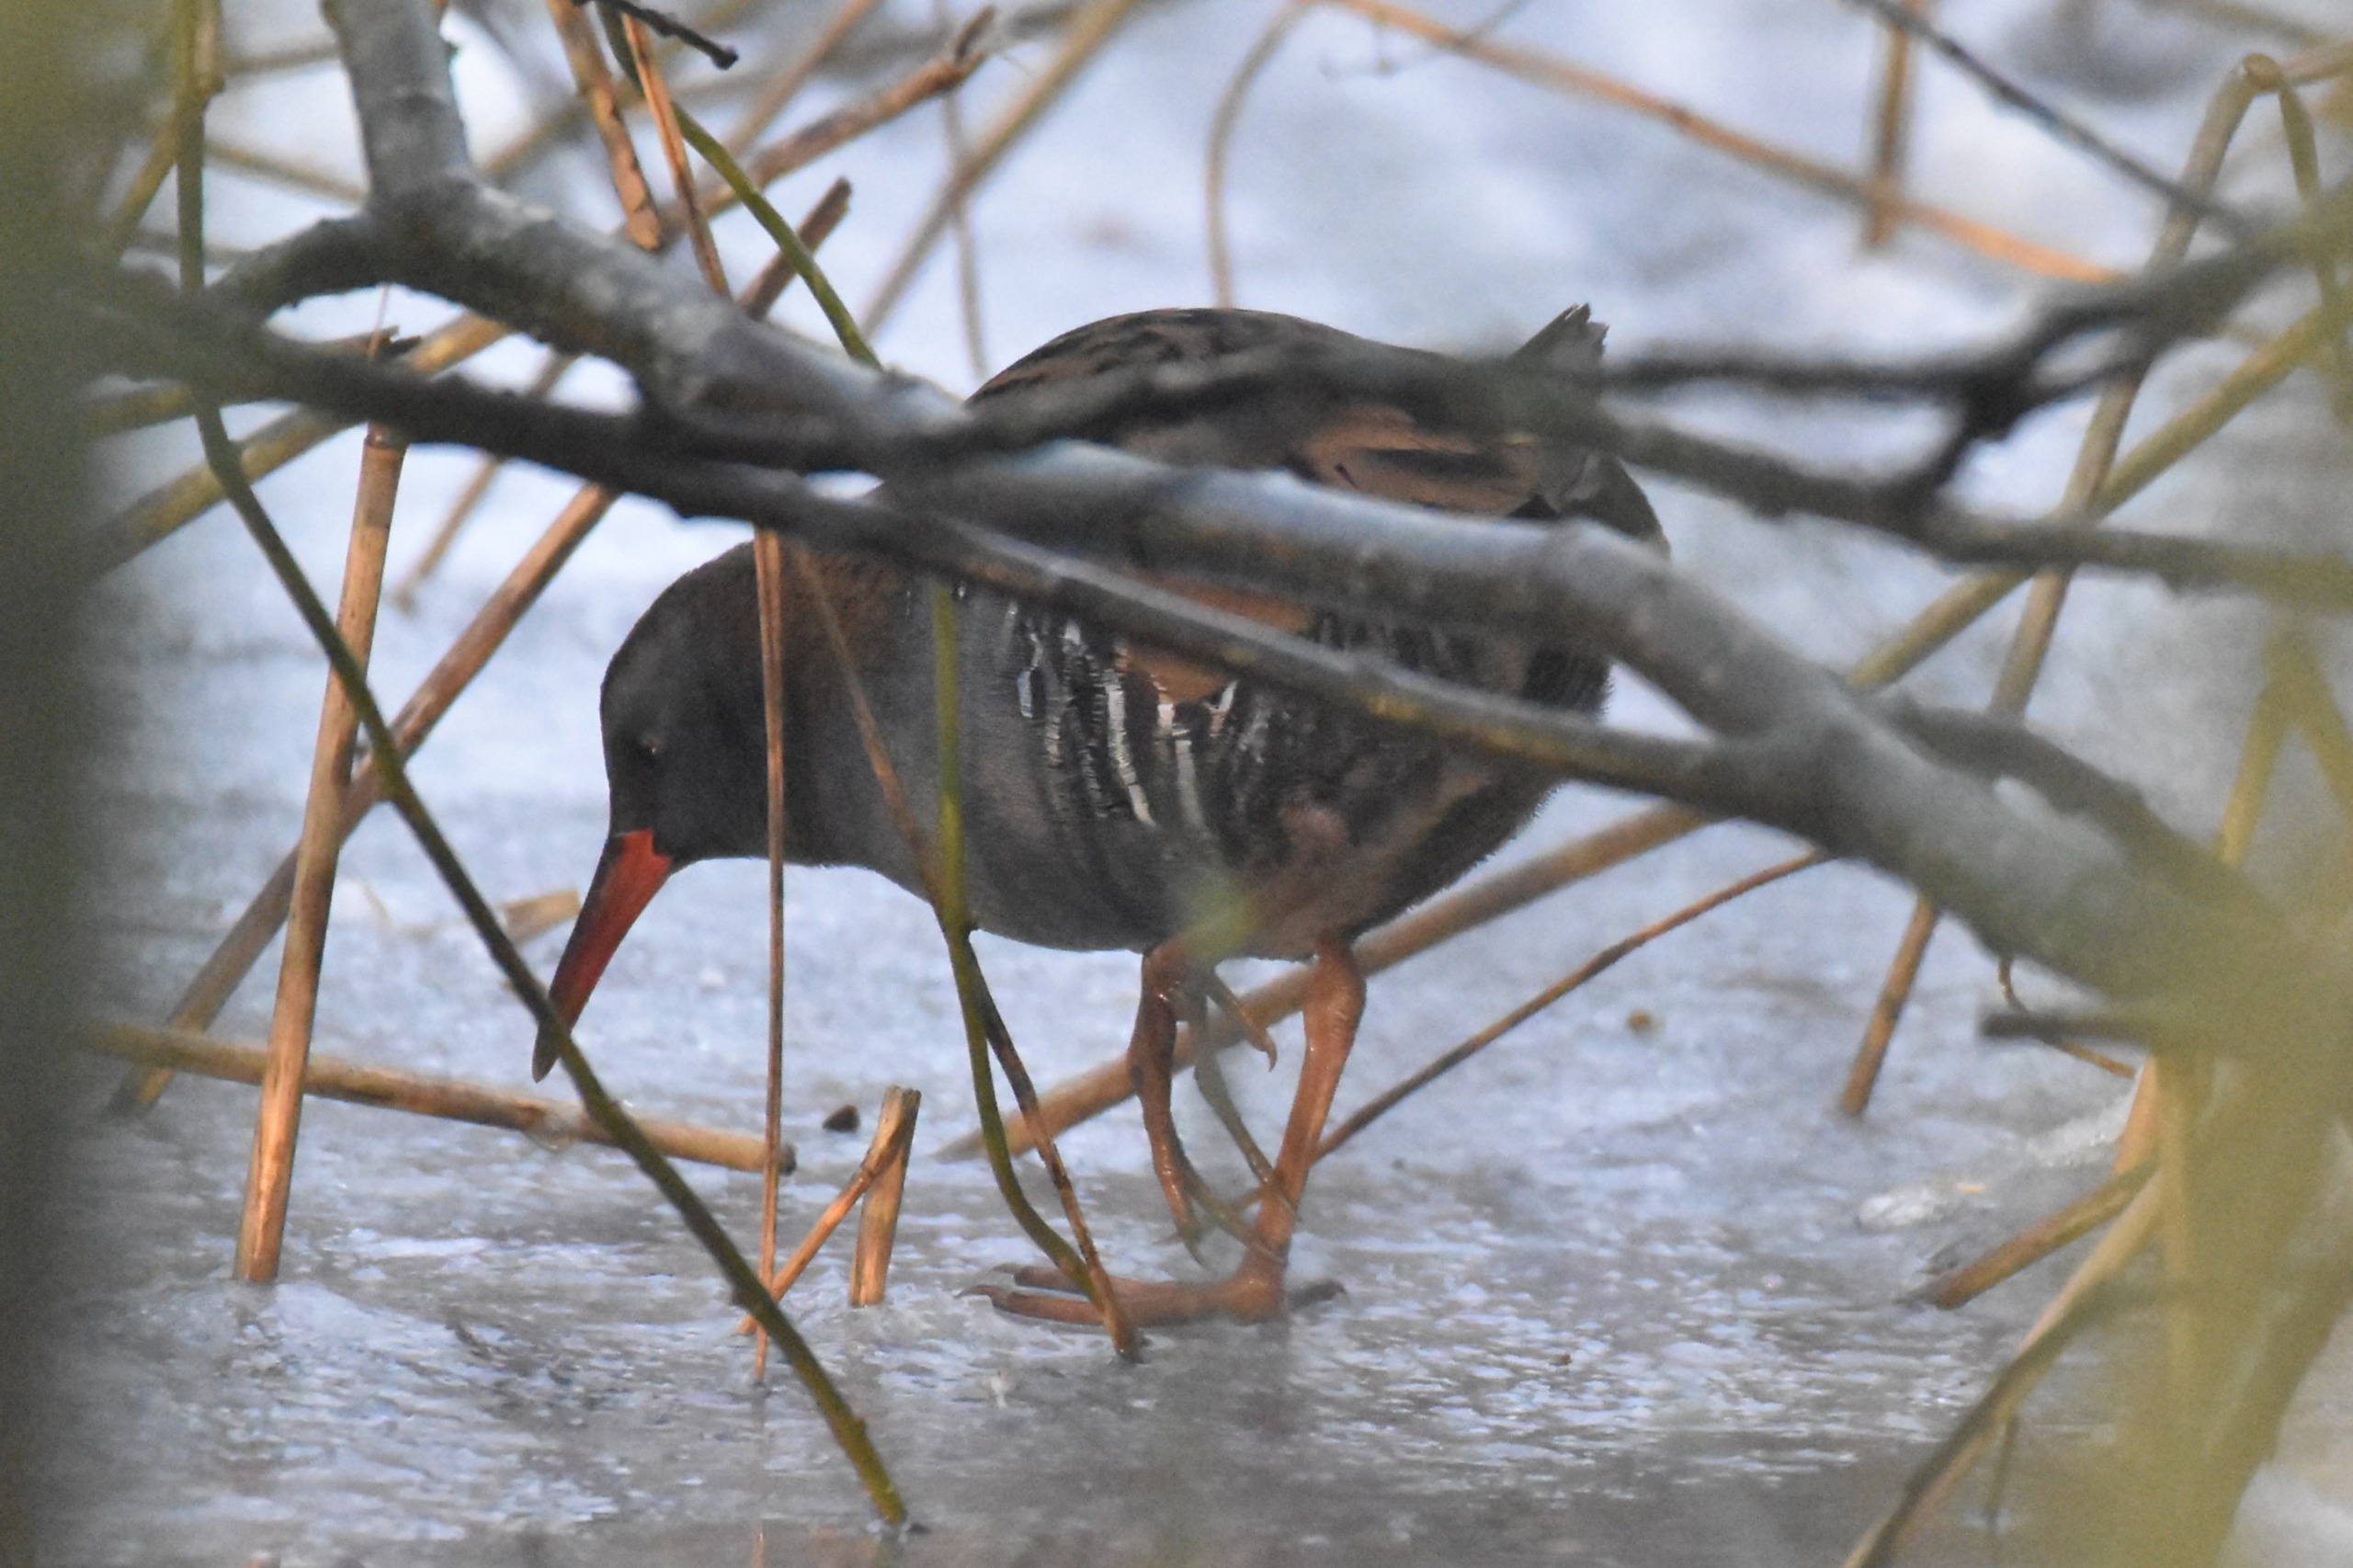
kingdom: Animalia
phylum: Chordata
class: Aves
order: Gruiformes
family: Rallidae
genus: Rallus
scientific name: Rallus aquaticus
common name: Vandrikse
